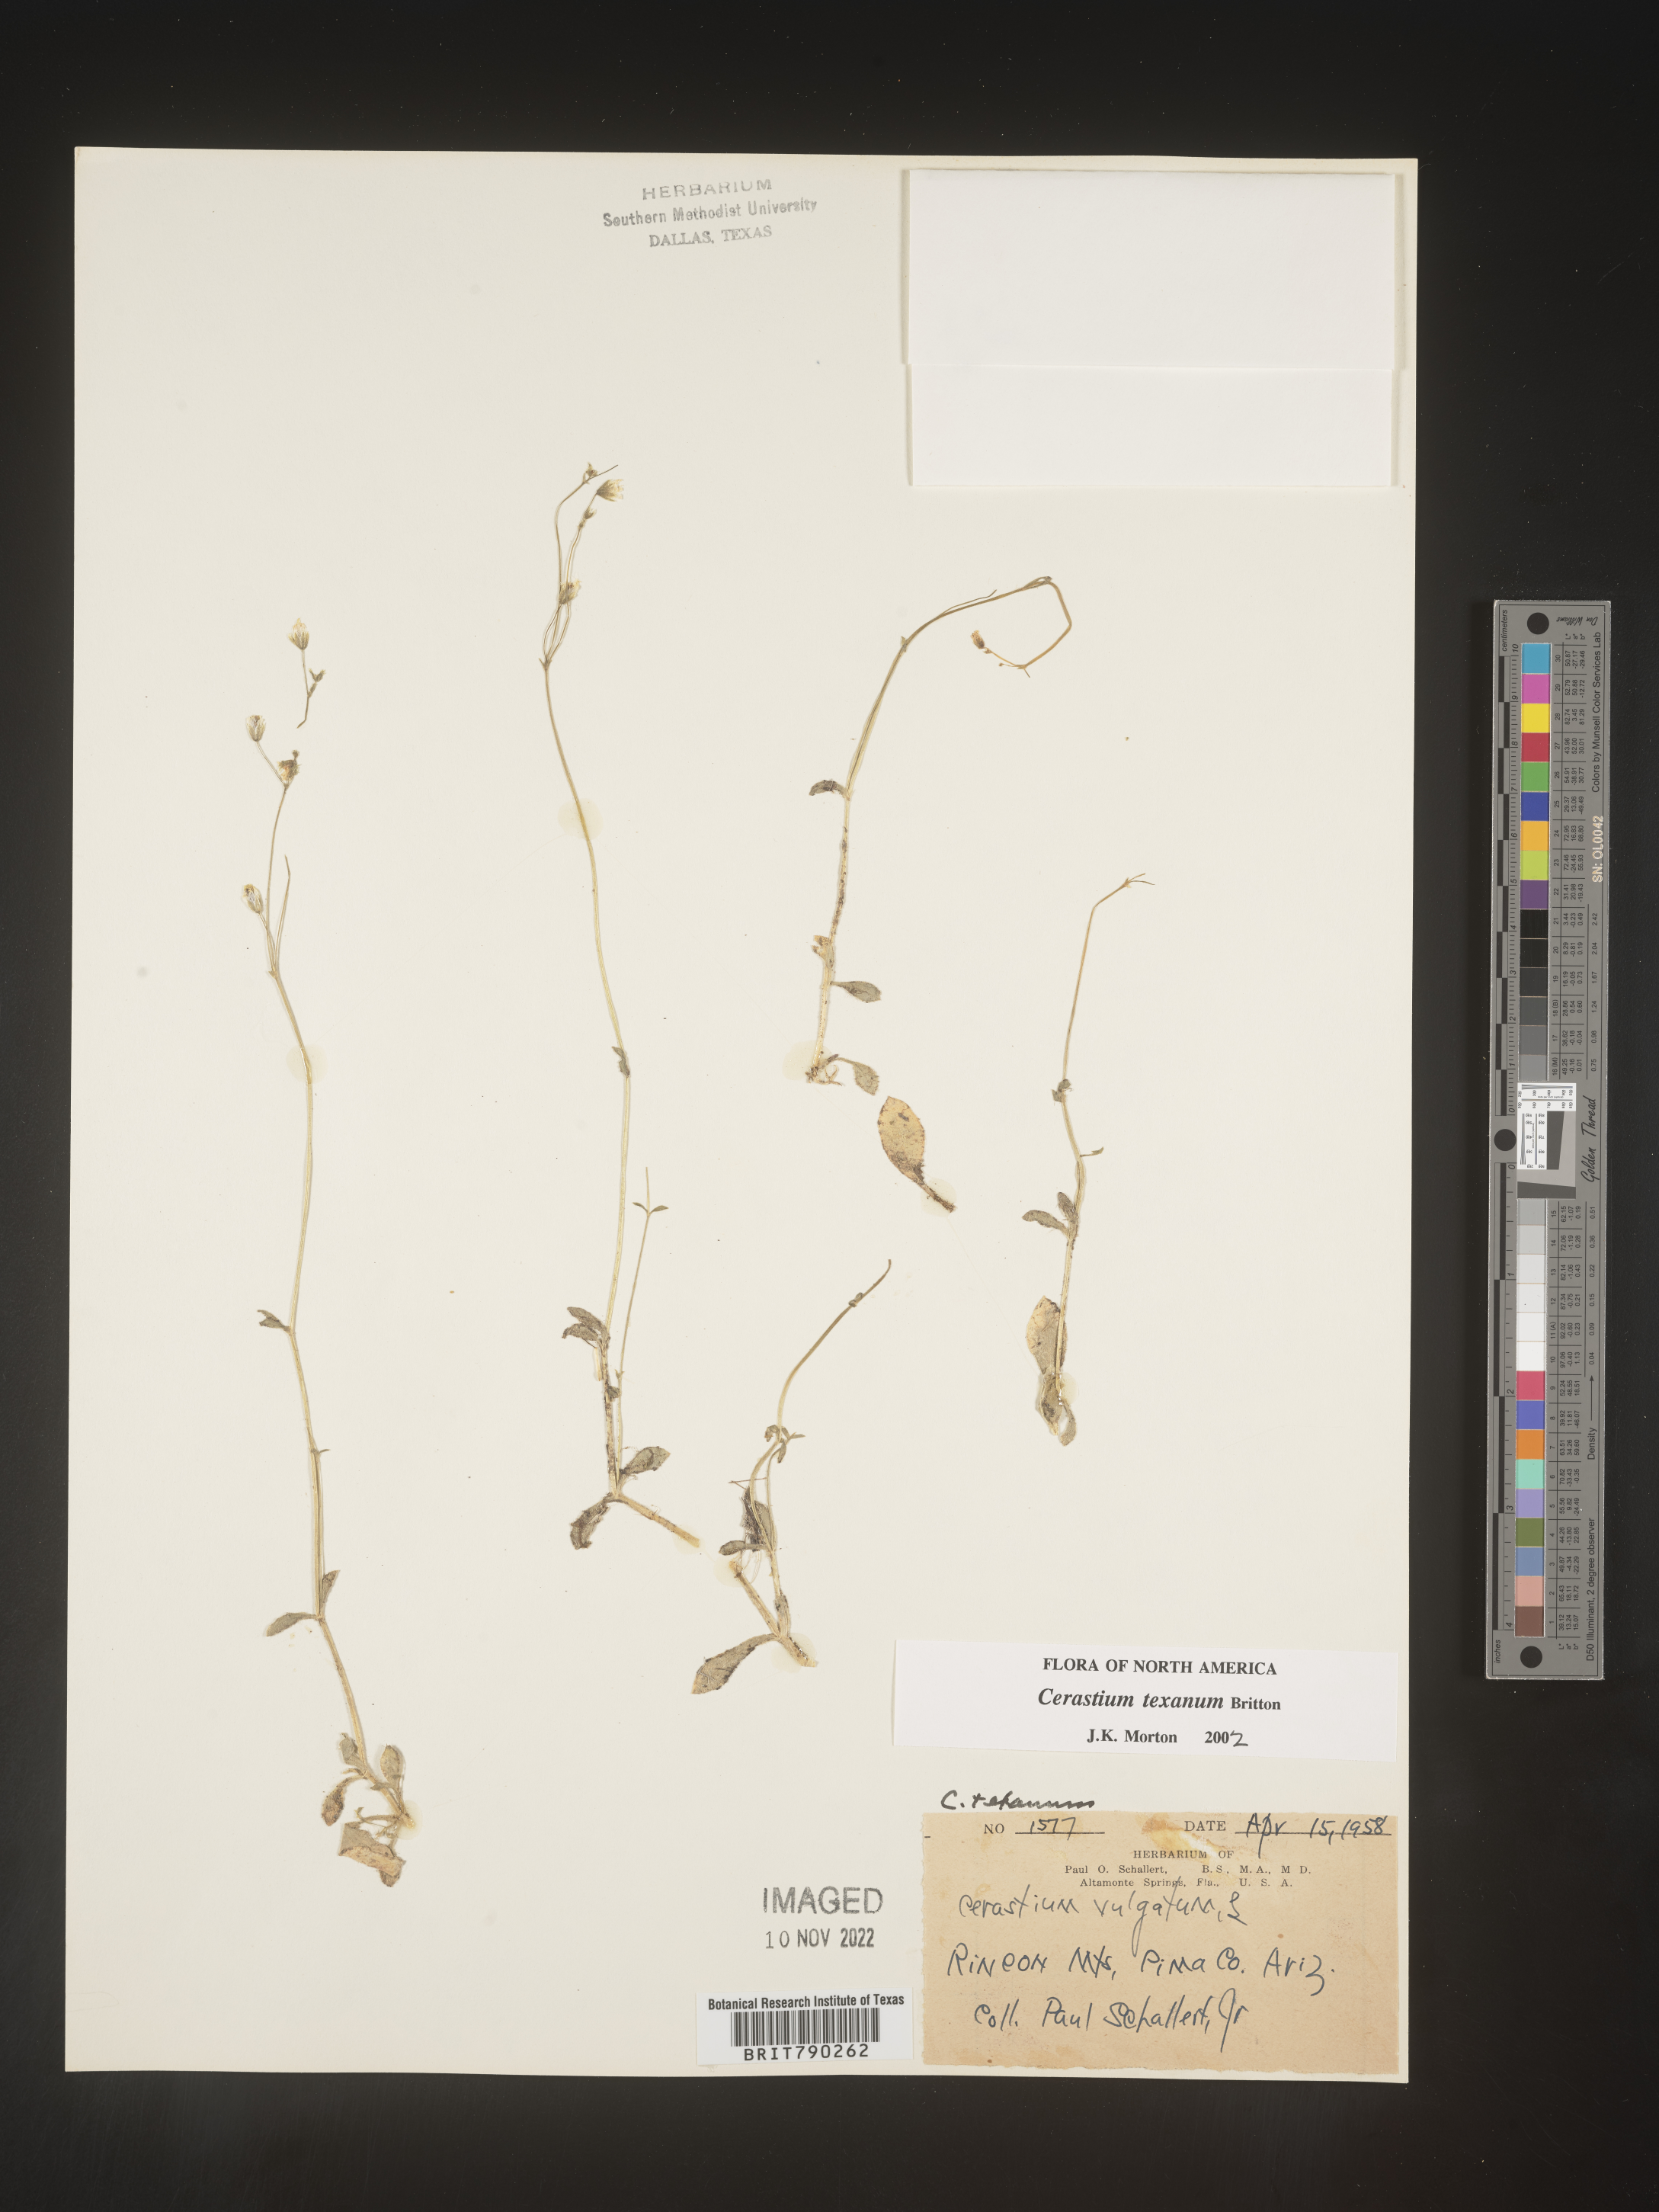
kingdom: Plantae
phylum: Tracheophyta
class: Magnoliopsida
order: Caryophyllales
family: Caryophyllaceae
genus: Cerastium
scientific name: Cerastium texanum
